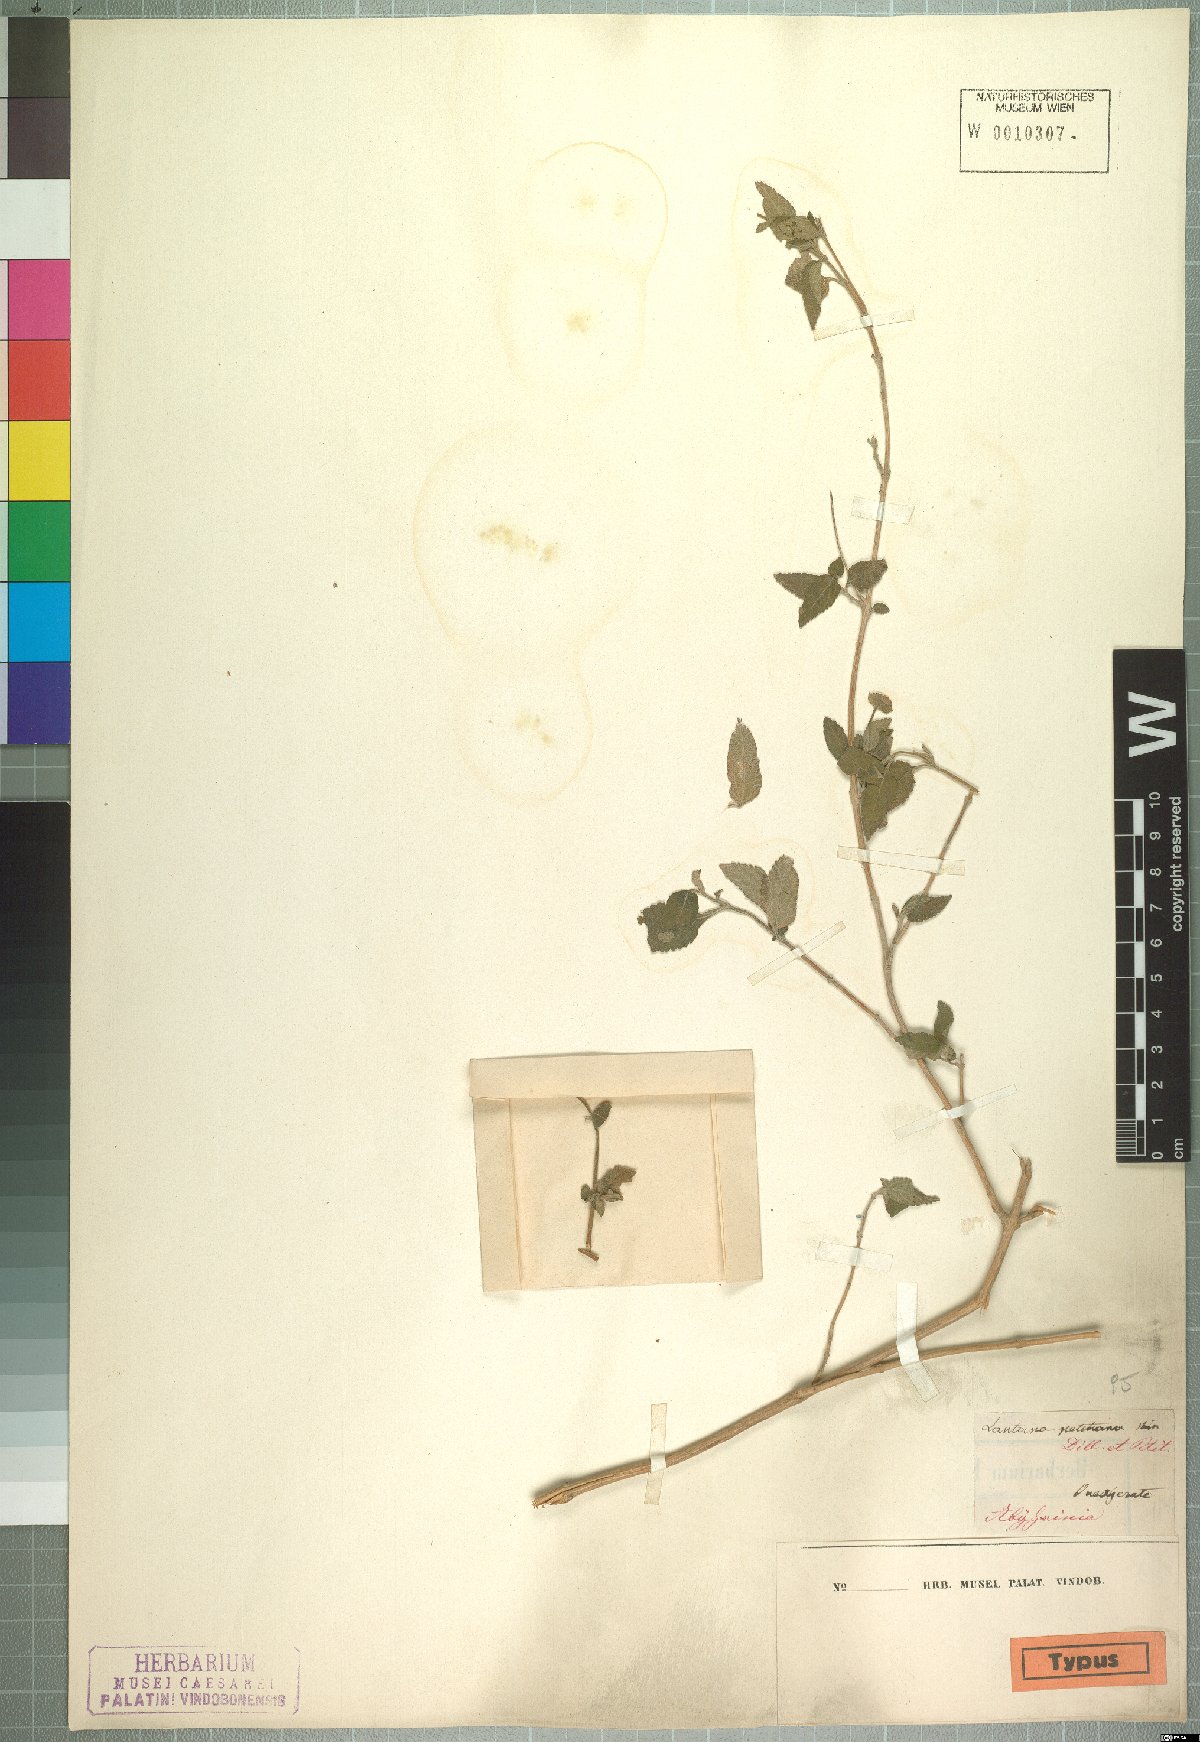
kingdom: Plantae
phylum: Tracheophyta
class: Magnoliopsida
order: Lamiales
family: Verbenaceae
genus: Lantana
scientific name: Lantana petitiana
